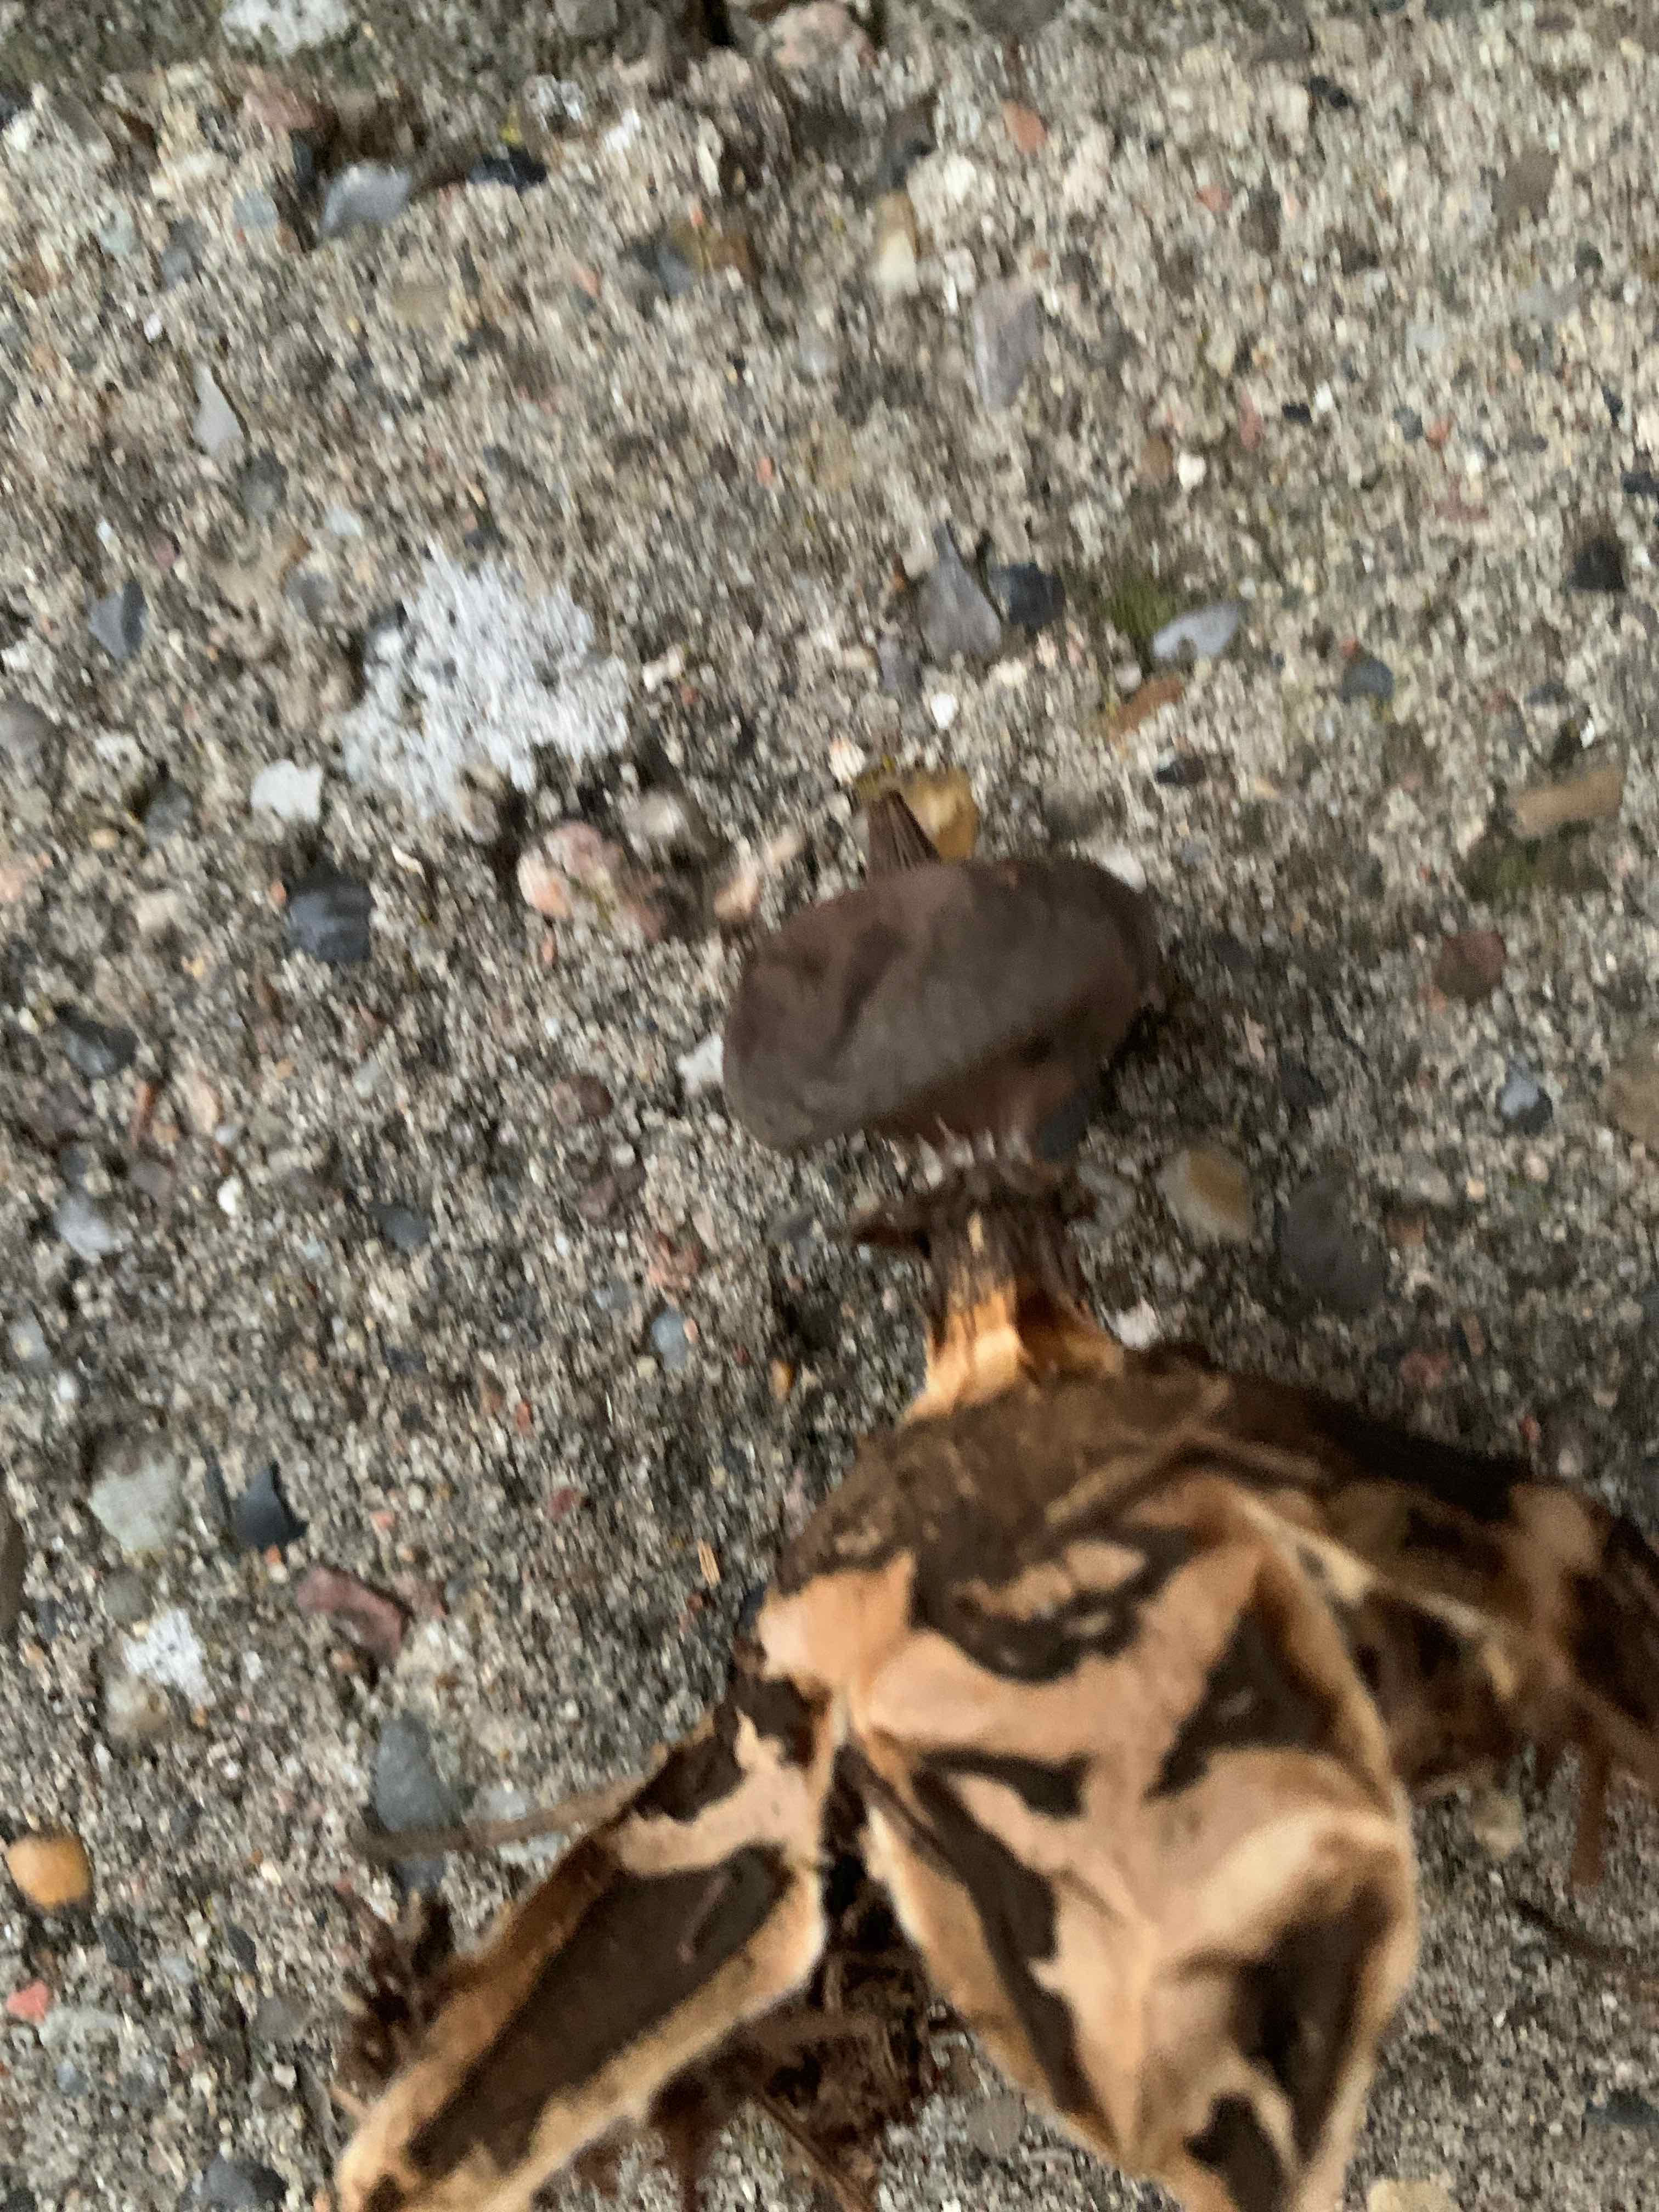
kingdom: Fungi
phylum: Basidiomycota
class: Agaricomycetes
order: Geastrales
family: Geastraceae
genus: Geastrum
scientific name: Geastrum pectinatum
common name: stilket stjernebold
